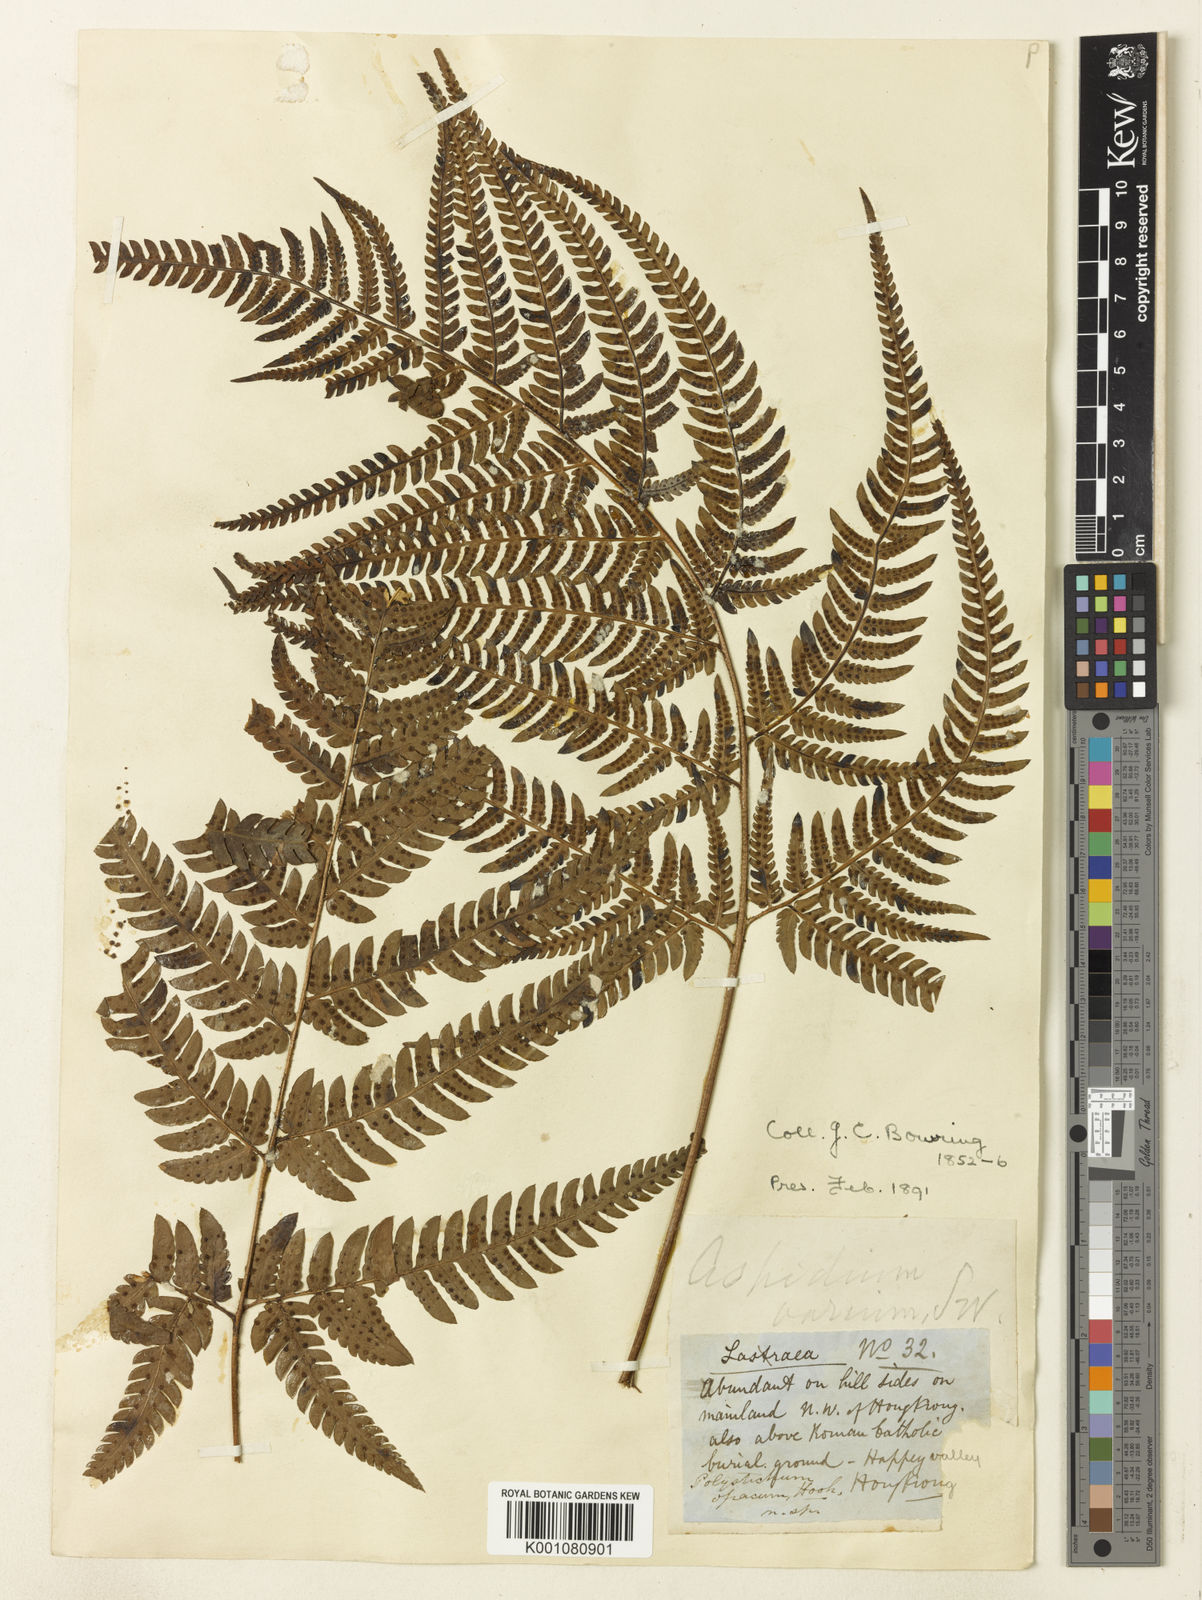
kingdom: Plantae
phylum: Tracheophyta
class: Polypodiopsida
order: Polypodiales
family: Dryopteridaceae
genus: Dryopteris
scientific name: Dryopteris varia
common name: Japanese holly fern
